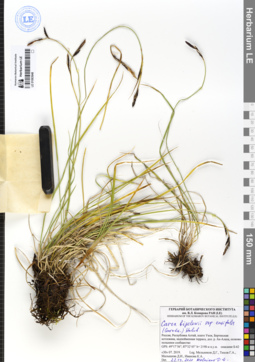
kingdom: Plantae
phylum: Tracheophyta
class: Liliopsida
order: Poales
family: Cyperaceae
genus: Carex
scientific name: Carex bigelowii
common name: Stiff sedge
